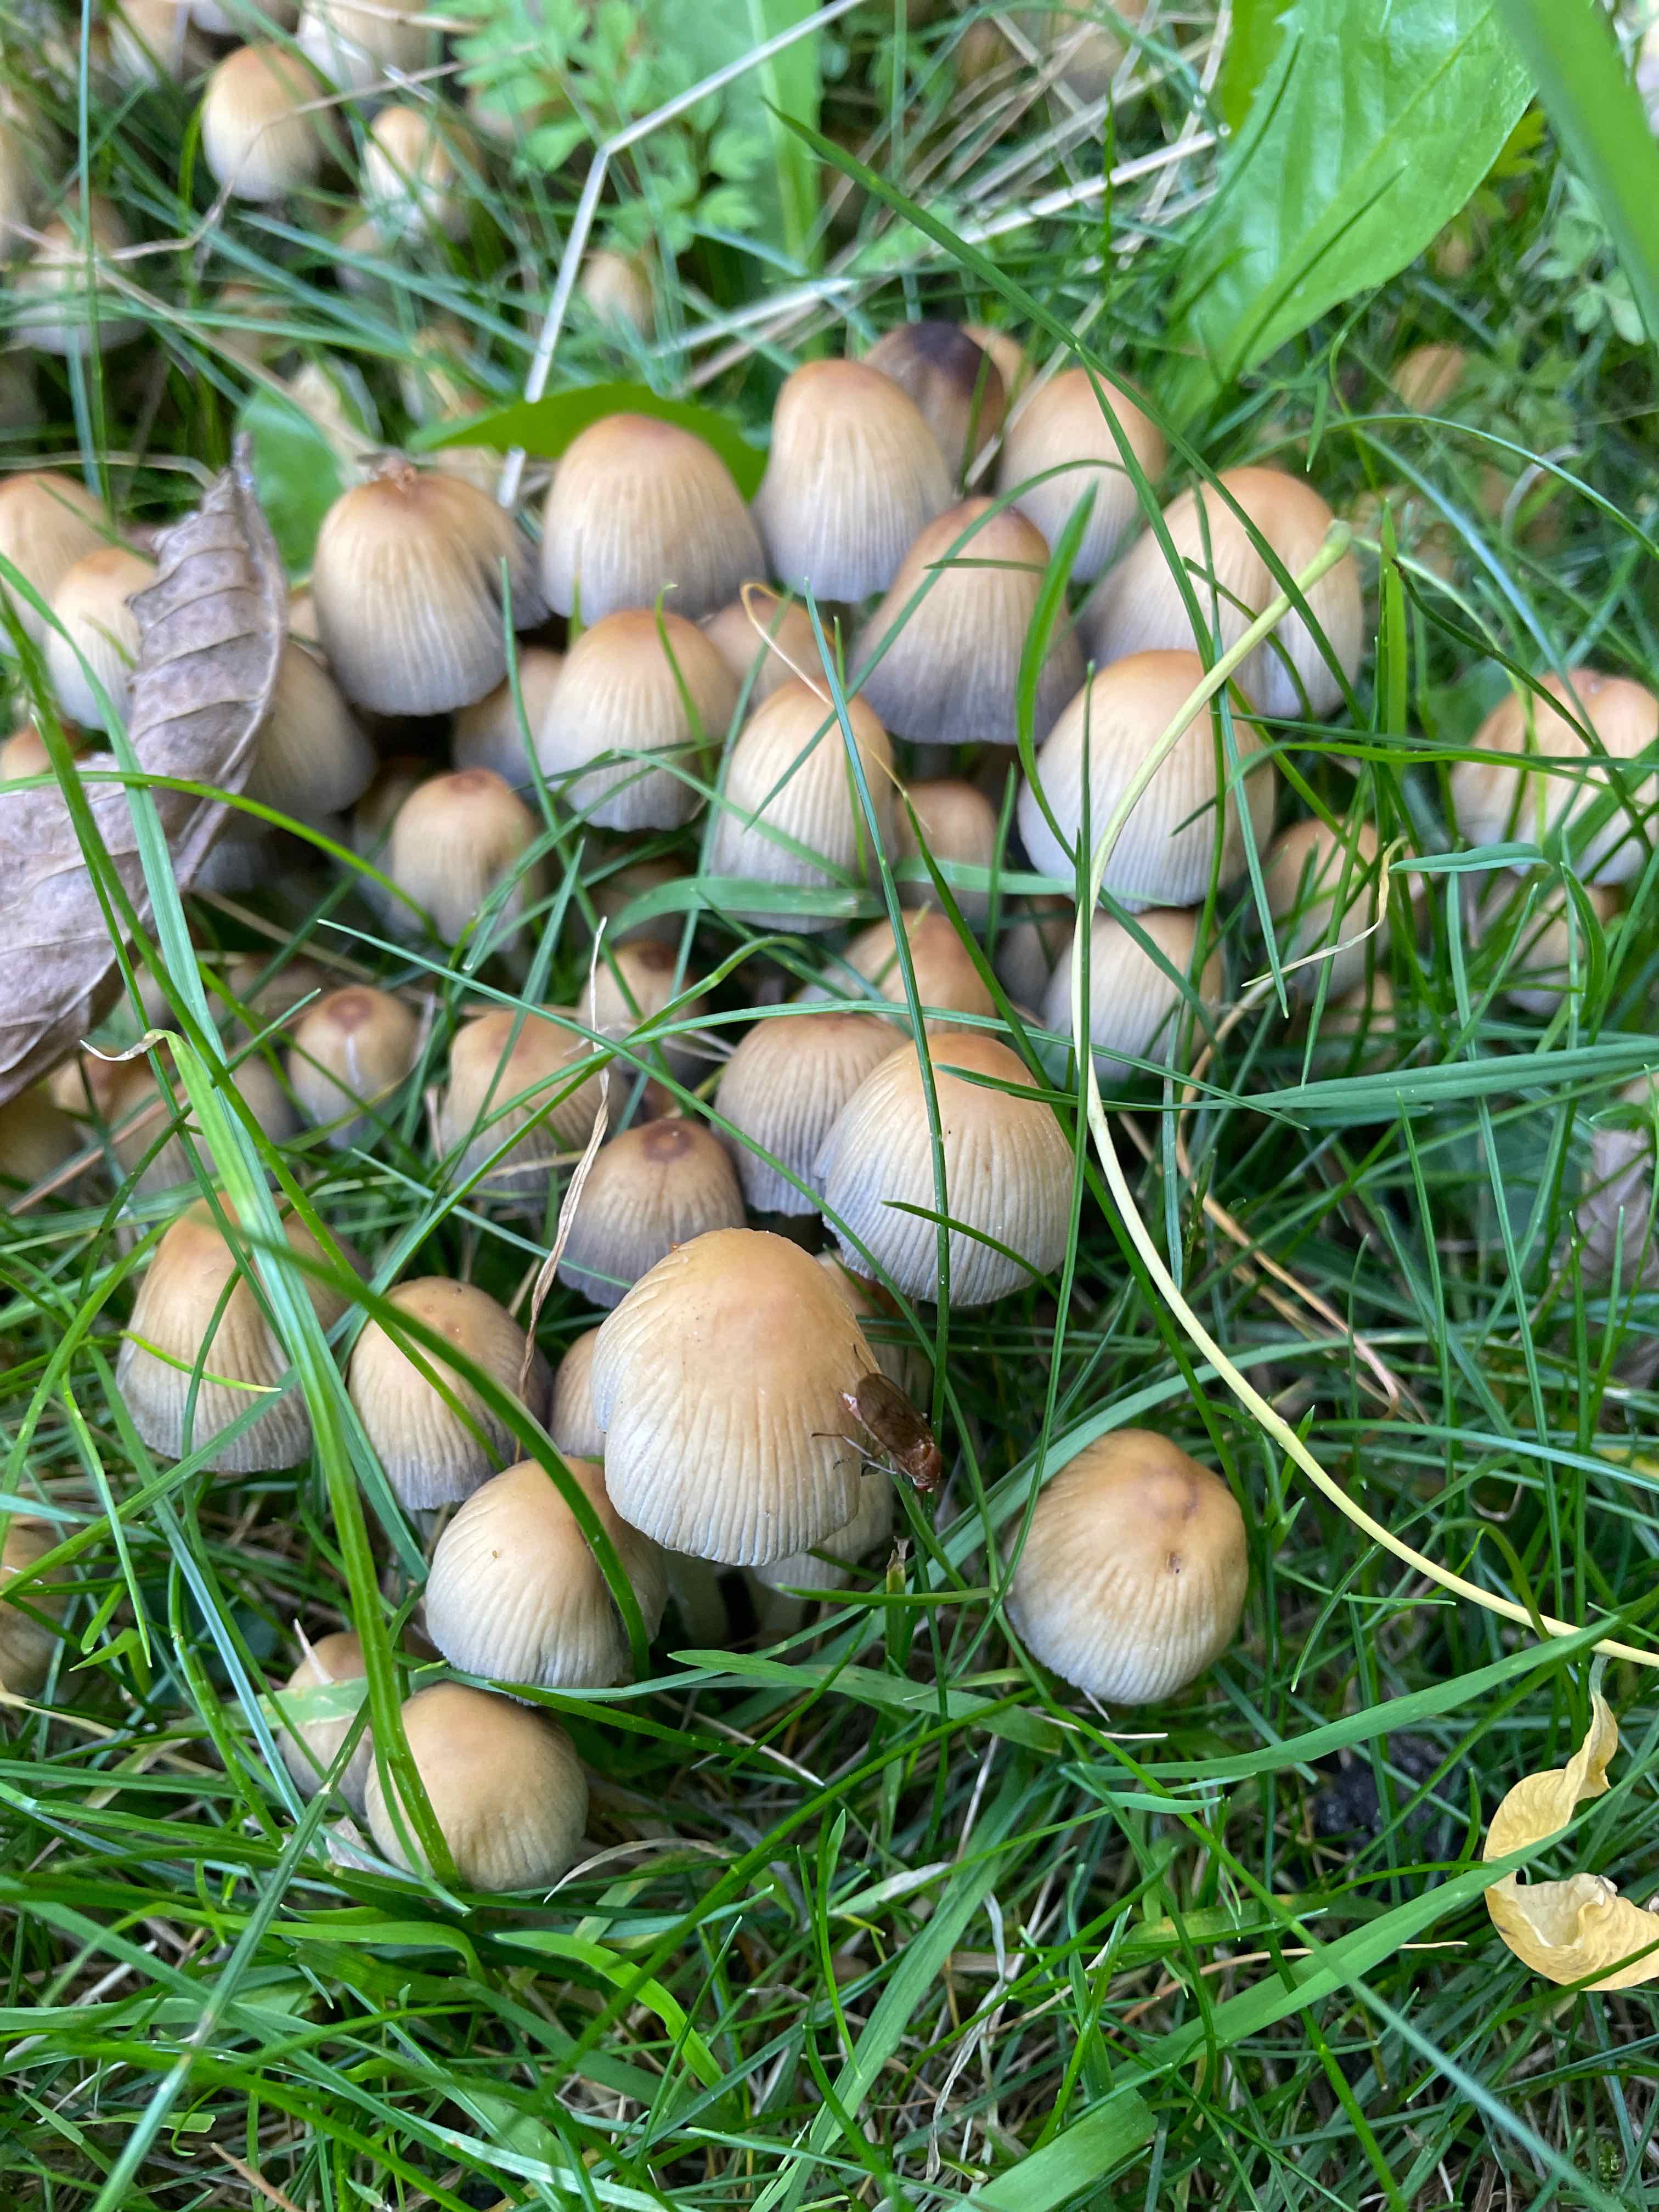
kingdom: Fungi
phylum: Basidiomycota
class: Agaricomycetes
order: Agaricales
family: Psathyrellaceae
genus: Coprinellus
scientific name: Coprinellus micaceus
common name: glimmer-blækhat
